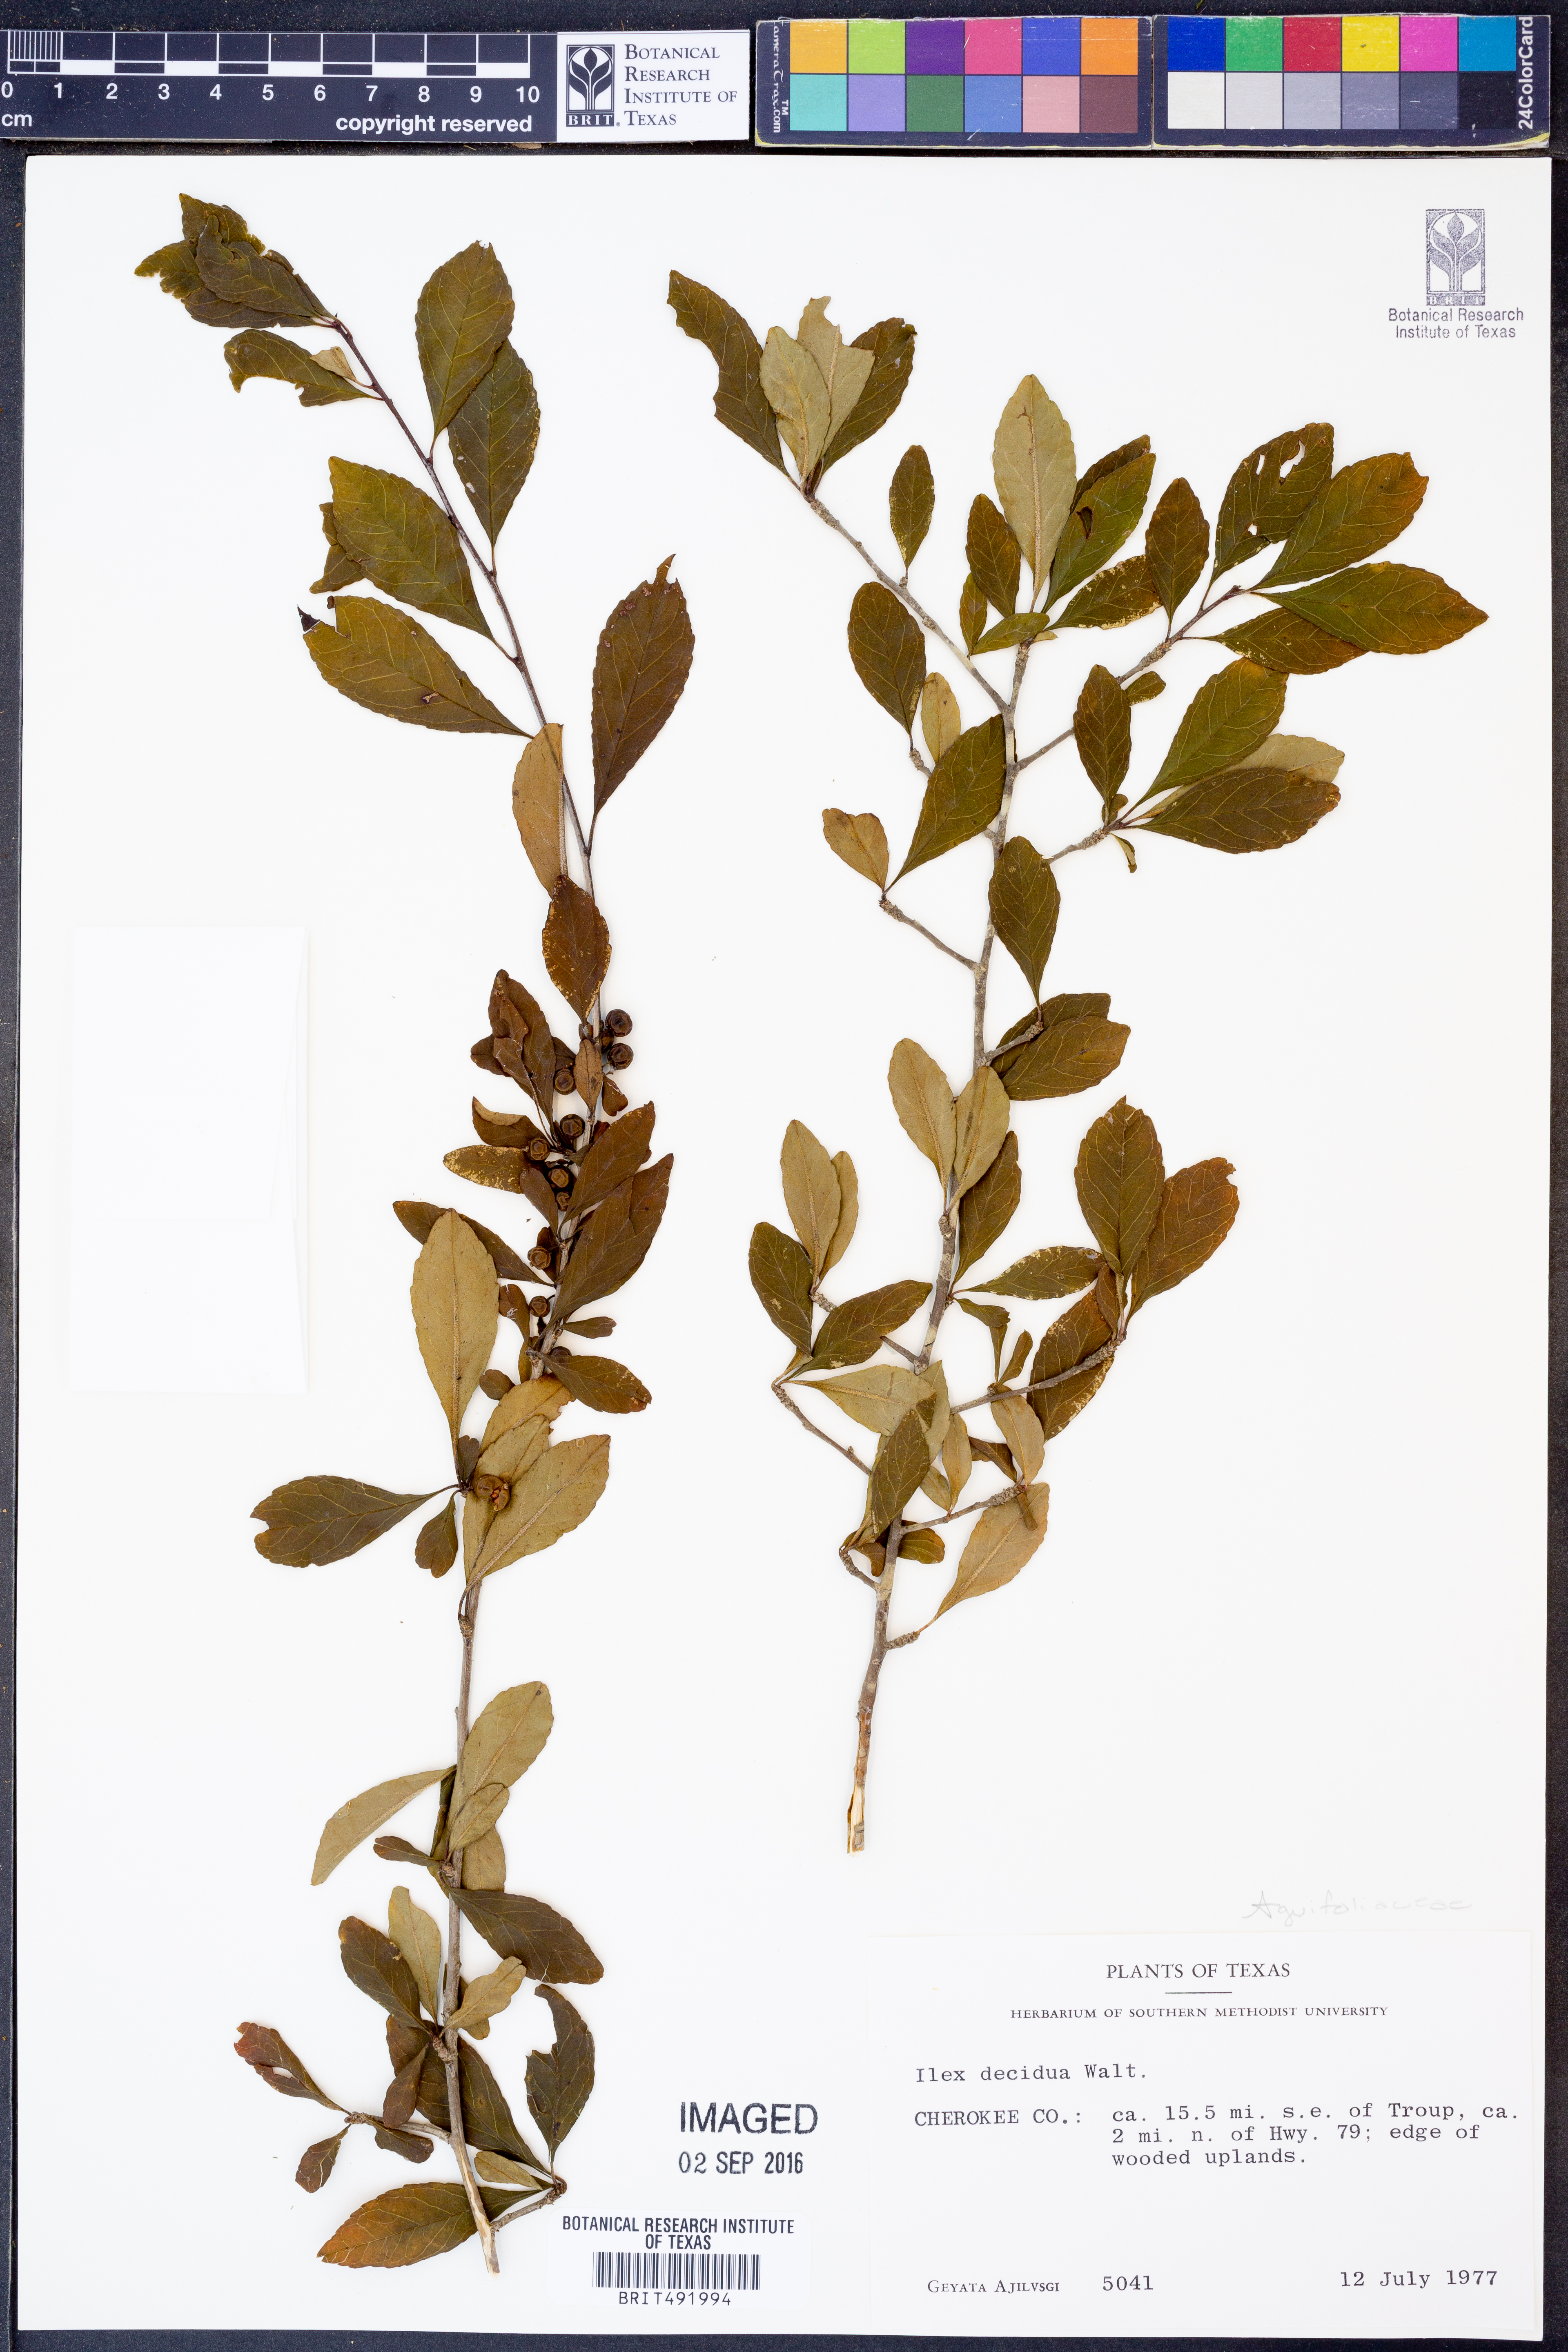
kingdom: Plantae
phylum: Tracheophyta
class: Magnoliopsida
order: Aquifoliales
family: Aquifoliaceae
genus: Ilex
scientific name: Ilex decidua
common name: Possum-haw
